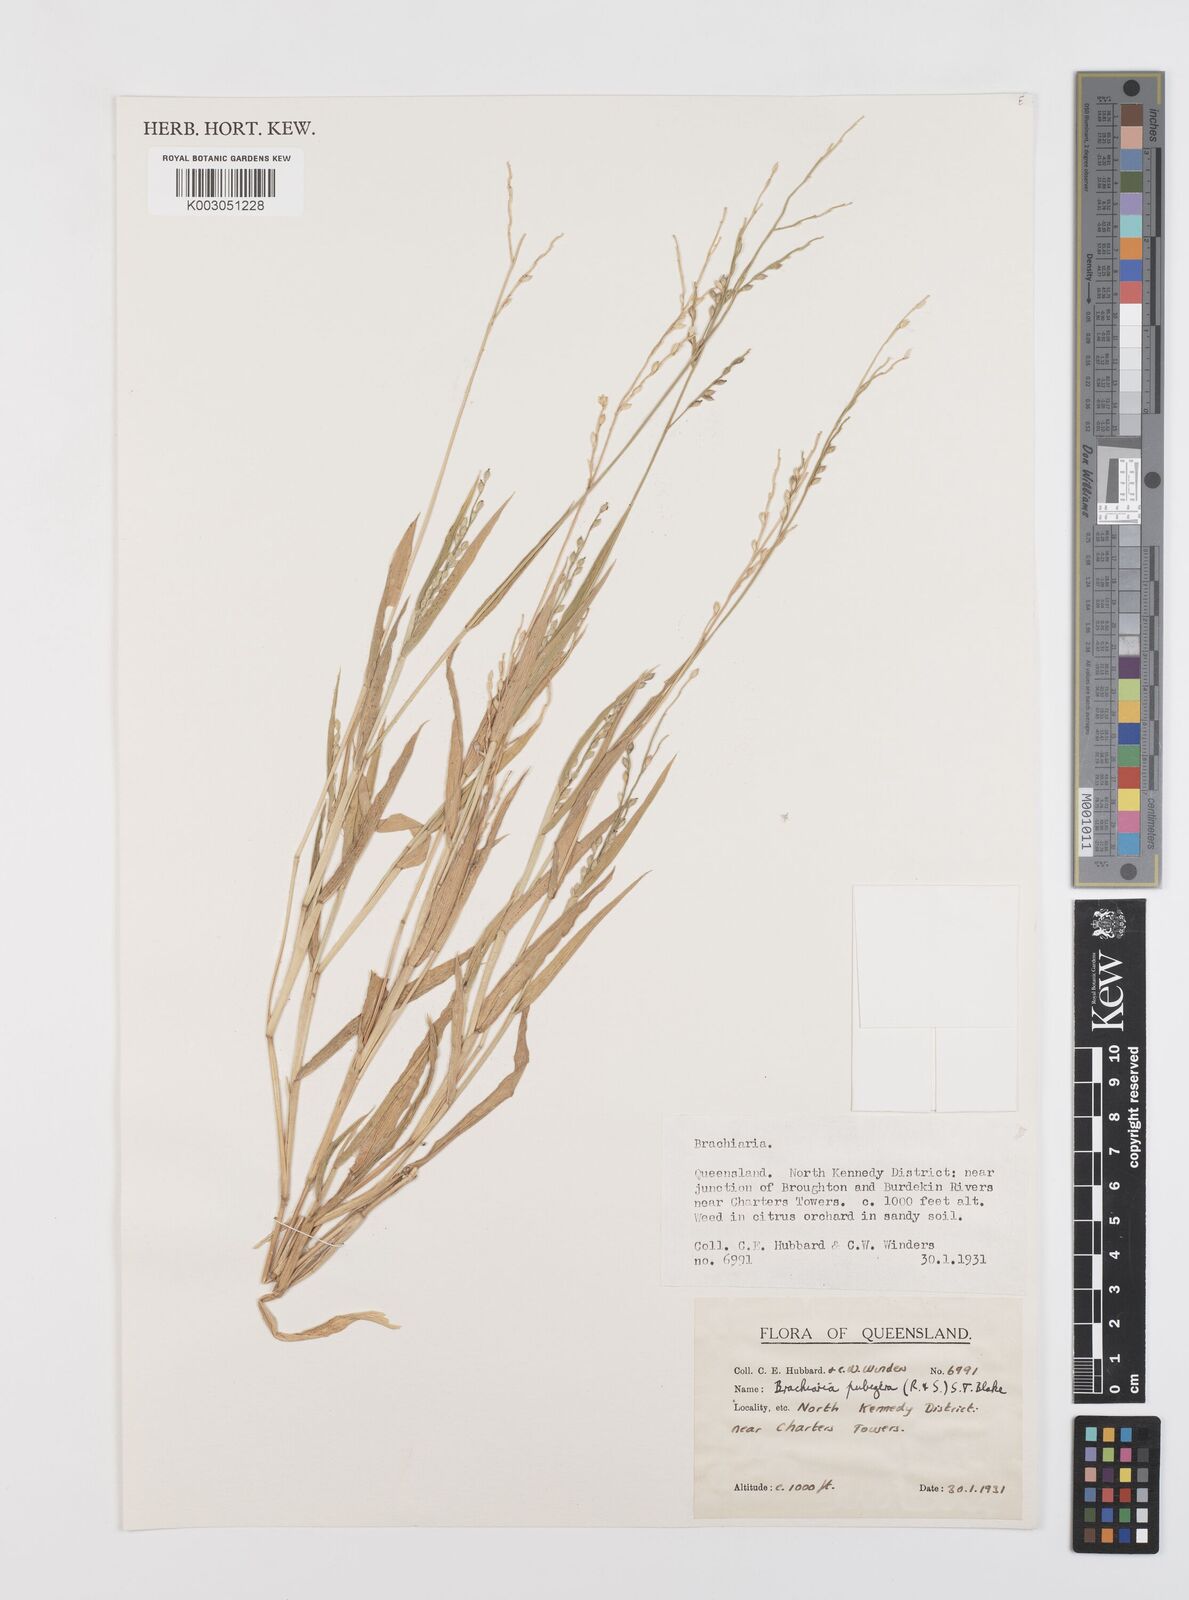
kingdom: Plantae
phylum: Tracheophyta
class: Liliopsida
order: Poales
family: Poaceae
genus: Urochloa
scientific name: Urochloa praetervisa
